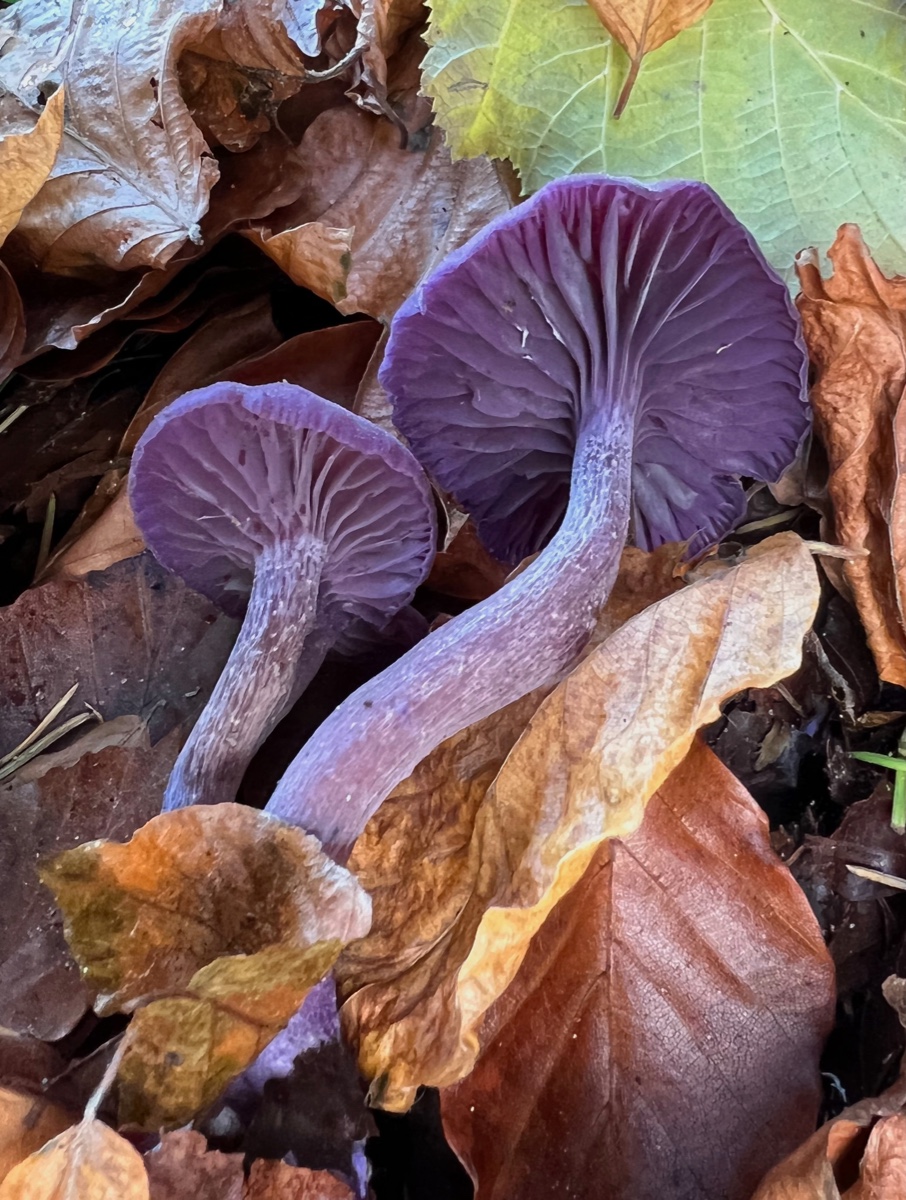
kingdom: Fungi
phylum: Basidiomycota
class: Agaricomycetes
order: Agaricales
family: Hydnangiaceae
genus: Laccaria
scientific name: Laccaria amethystina
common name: violet ametysthat
